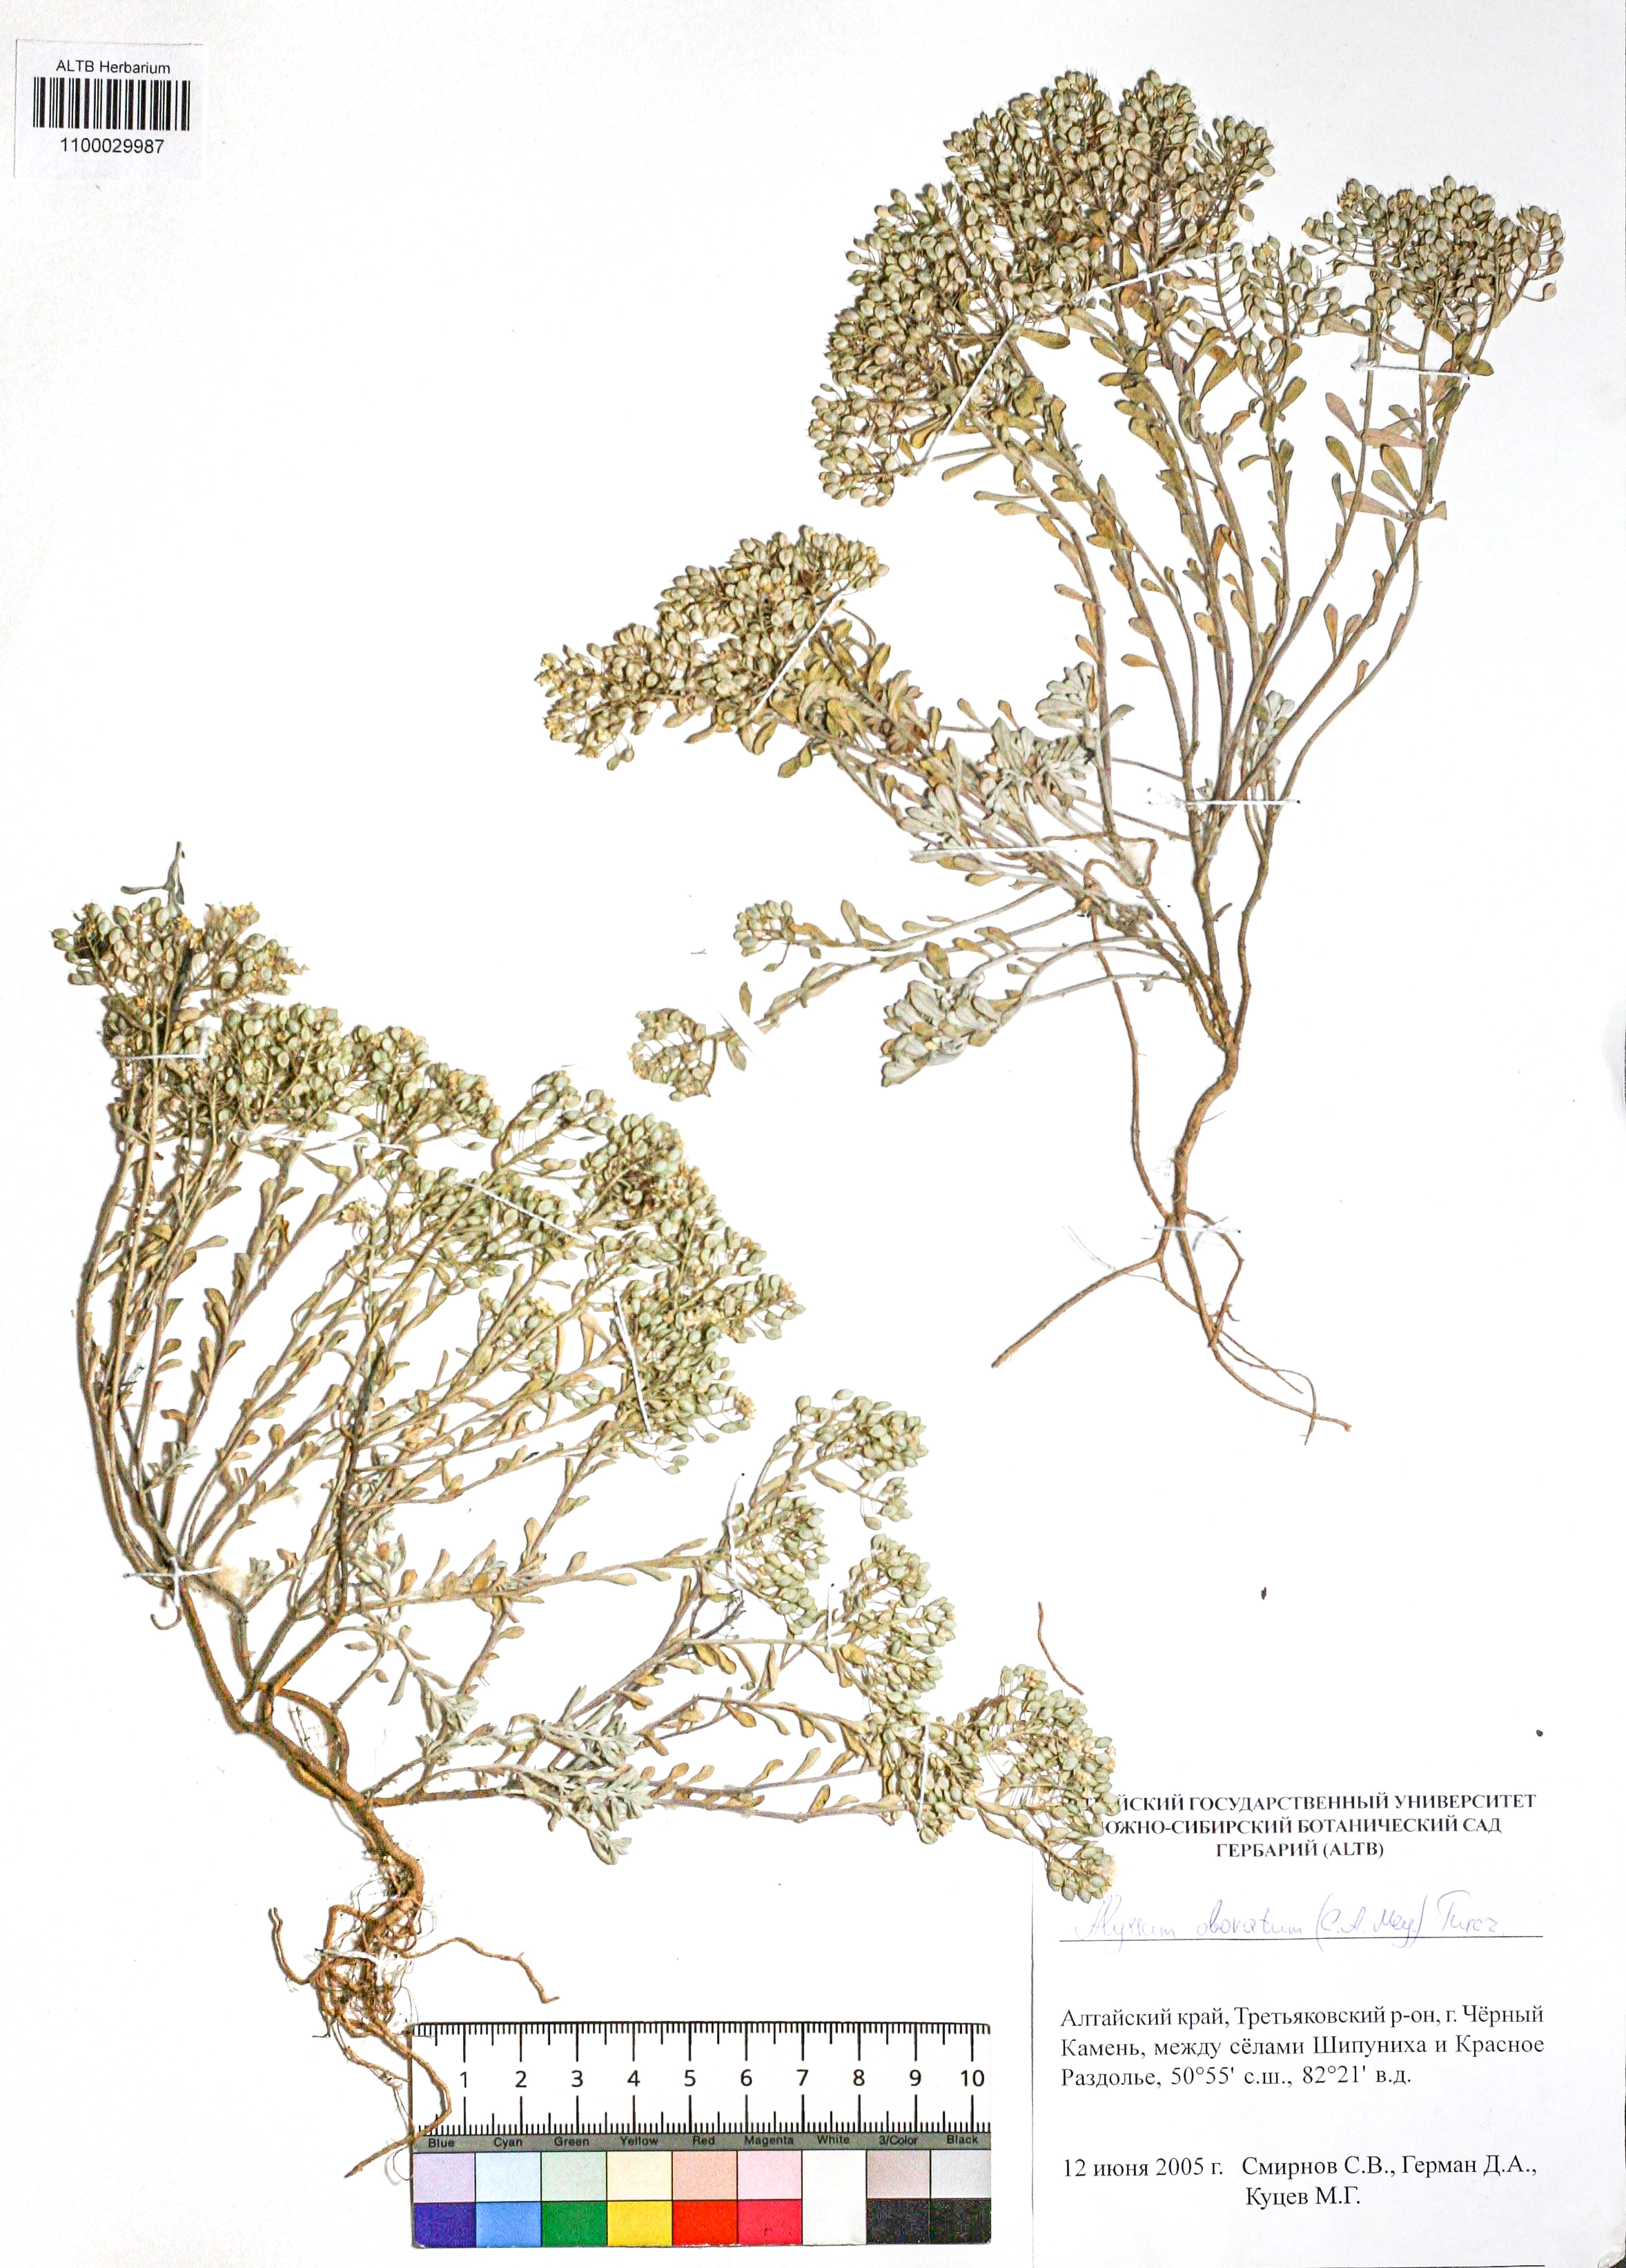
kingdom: Plantae
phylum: Tracheophyta
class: Magnoliopsida
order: Brassicales
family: Brassicaceae
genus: Odontarrhena
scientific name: Odontarrhena obovata
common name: American alyssum
